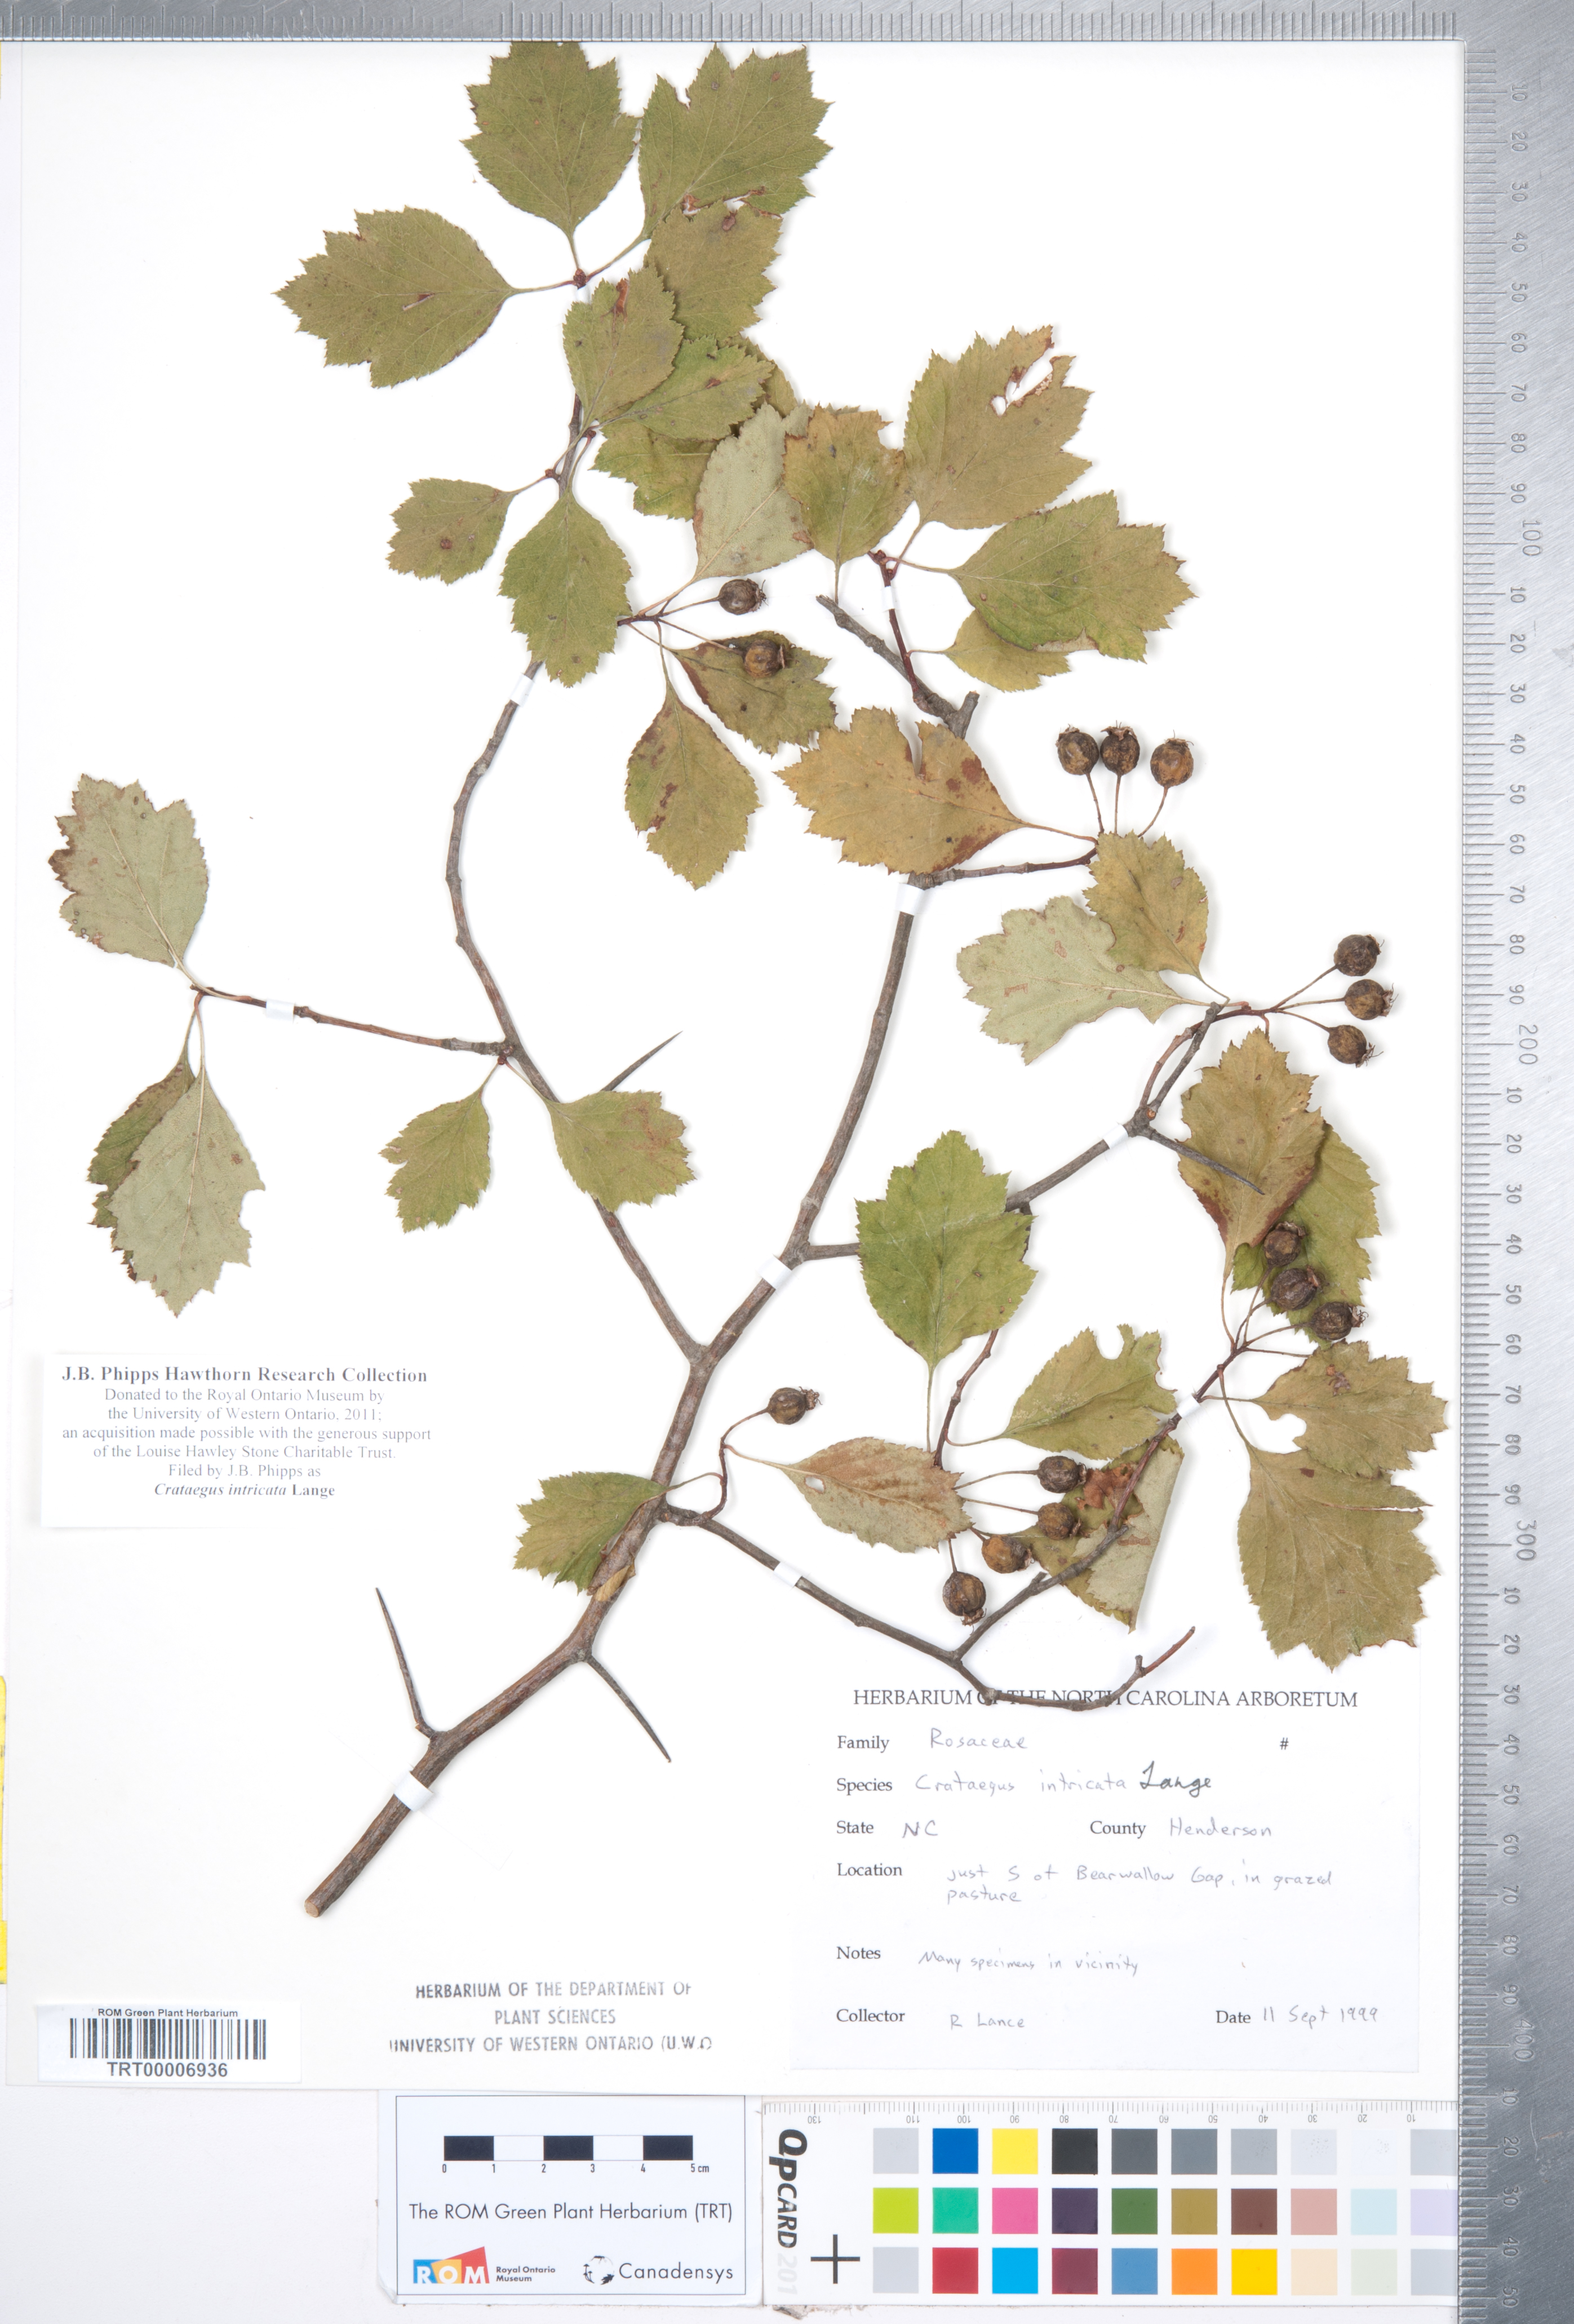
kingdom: Plantae
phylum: Tracheophyta
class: Magnoliopsida
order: Rosales
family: Rosaceae
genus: Crataegus
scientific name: Crataegus intricata
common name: Biltmore hawthorn
